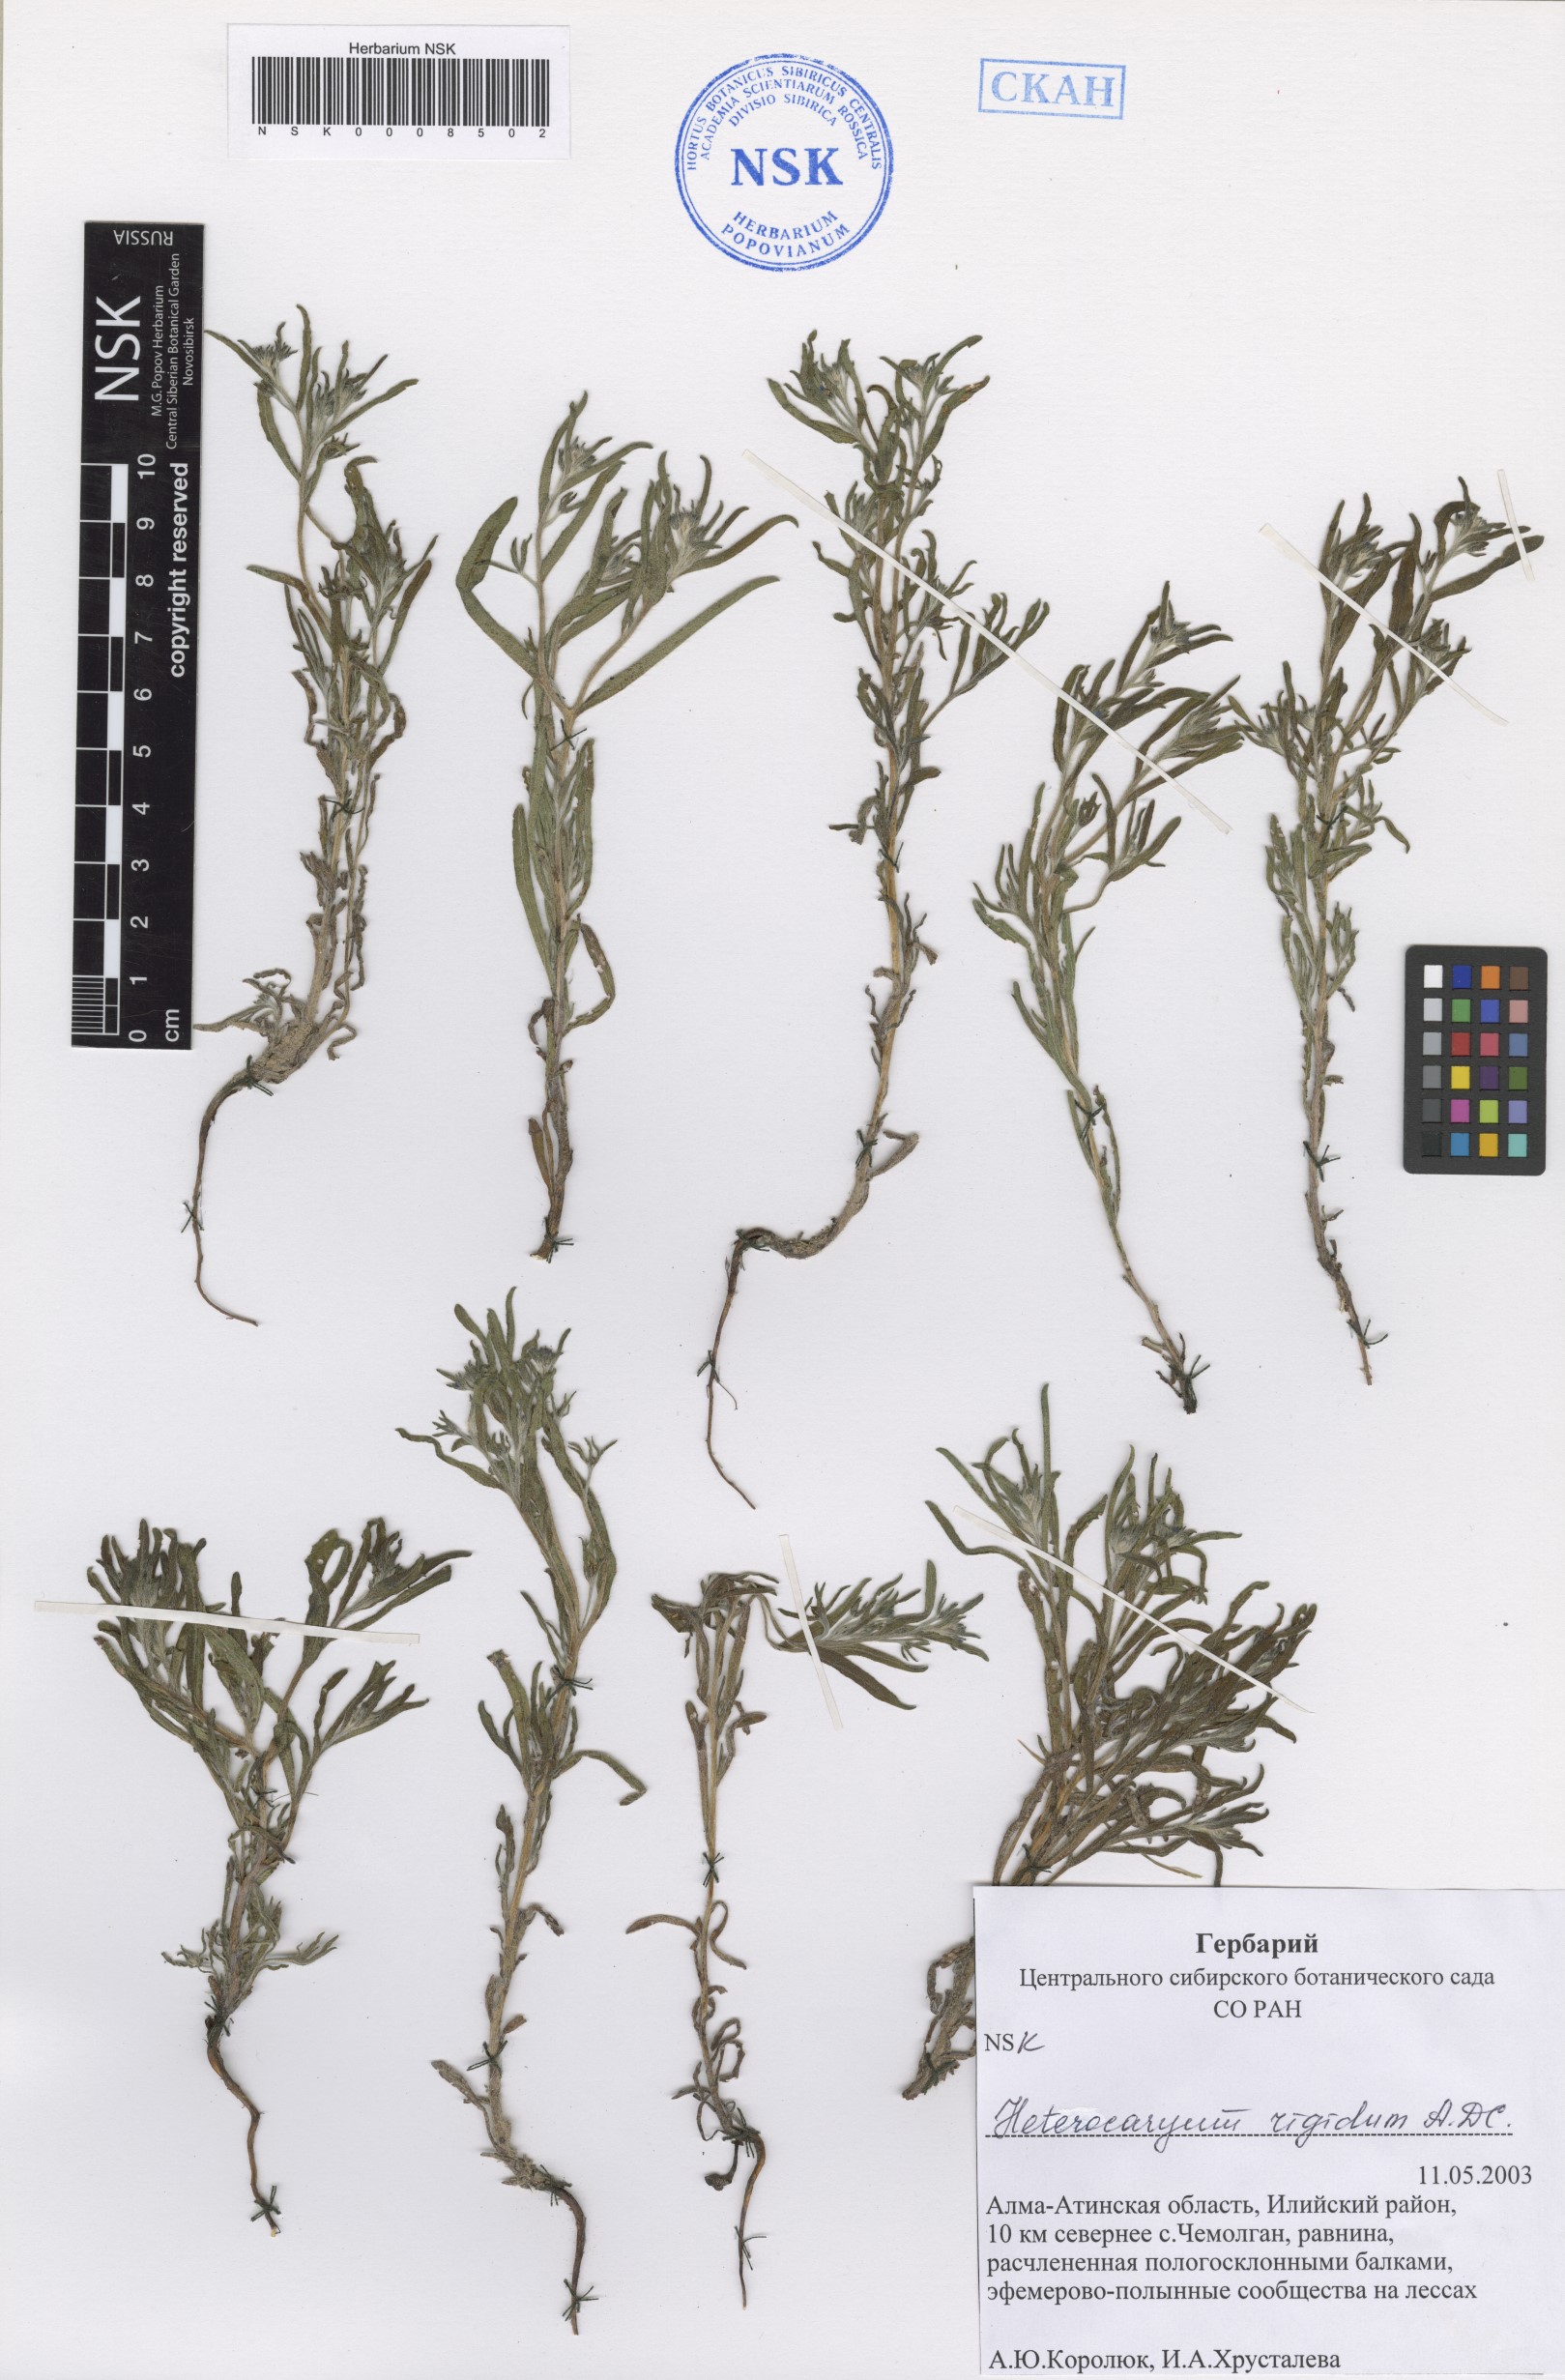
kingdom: Plantae
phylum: Tracheophyta
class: Magnoliopsida
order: Boraginales
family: Boraginaceae
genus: Pseudoheterocaryum
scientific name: Pseudoheterocaryum rigidum
